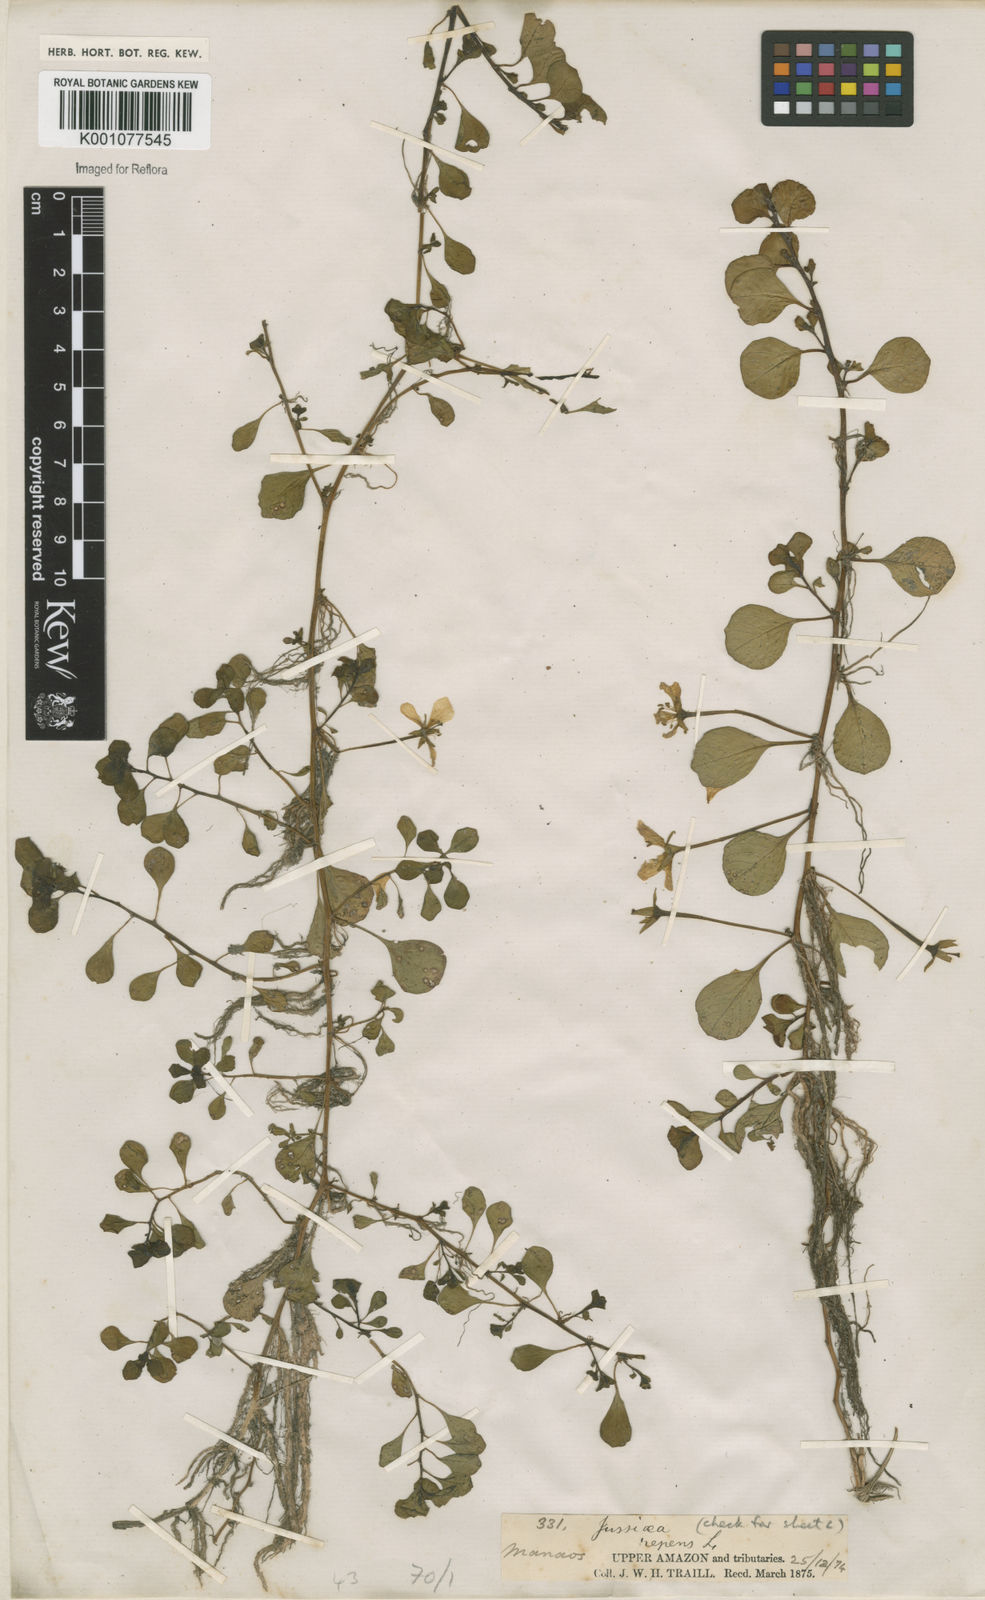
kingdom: Plantae
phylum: Tracheophyta
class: Magnoliopsida
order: Myrtales
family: Onagraceae
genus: Ludwigia
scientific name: Ludwigia adscendens
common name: Creeping water primrose
